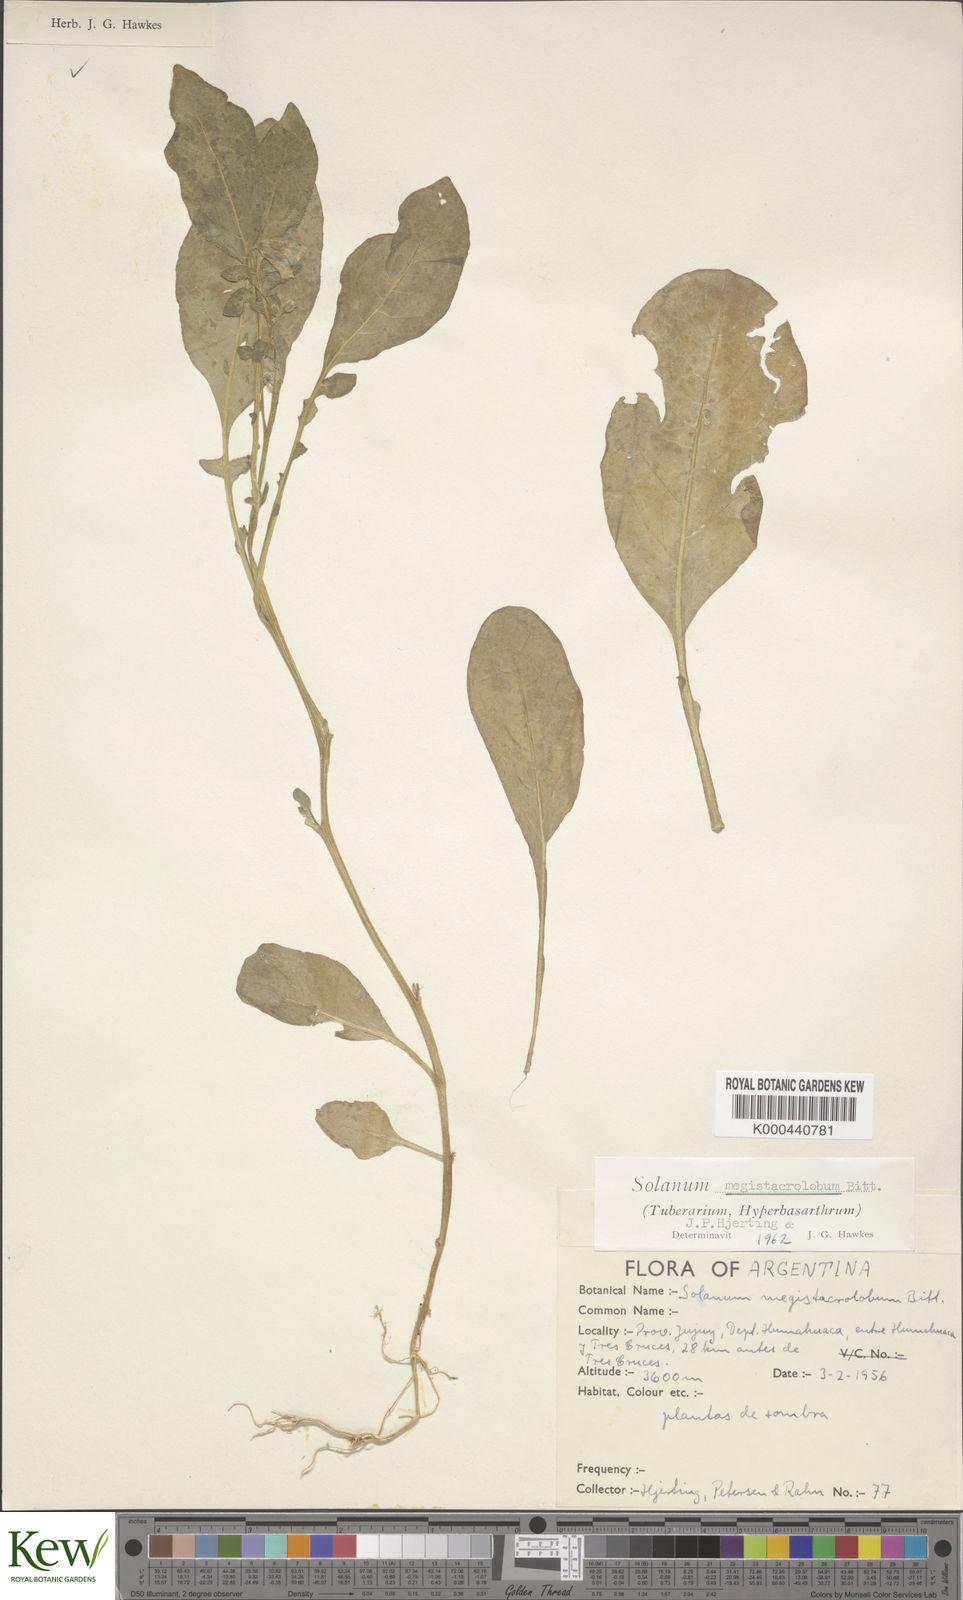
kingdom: Plantae
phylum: Tracheophyta
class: Magnoliopsida
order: Solanales
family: Solanaceae
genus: Solanum
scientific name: Solanum boliviense
